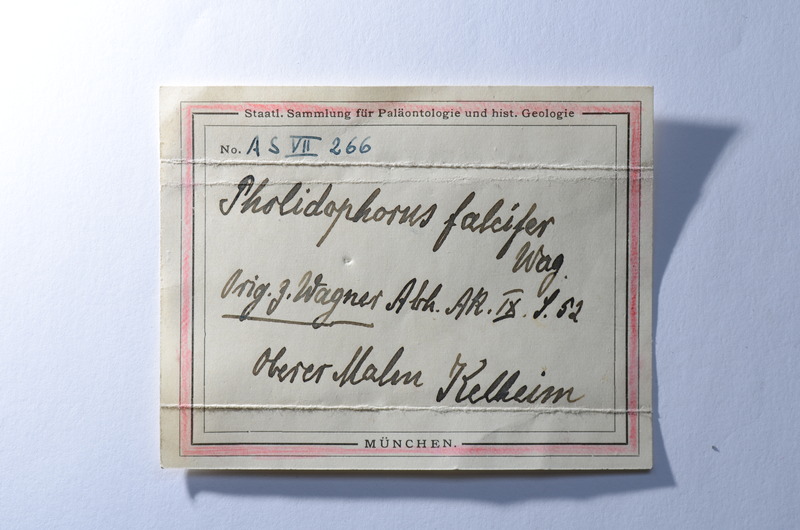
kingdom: Animalia
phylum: Chordata
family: Pholidophoridae
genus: Pholidophorus
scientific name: Pholidophorus falcifer
